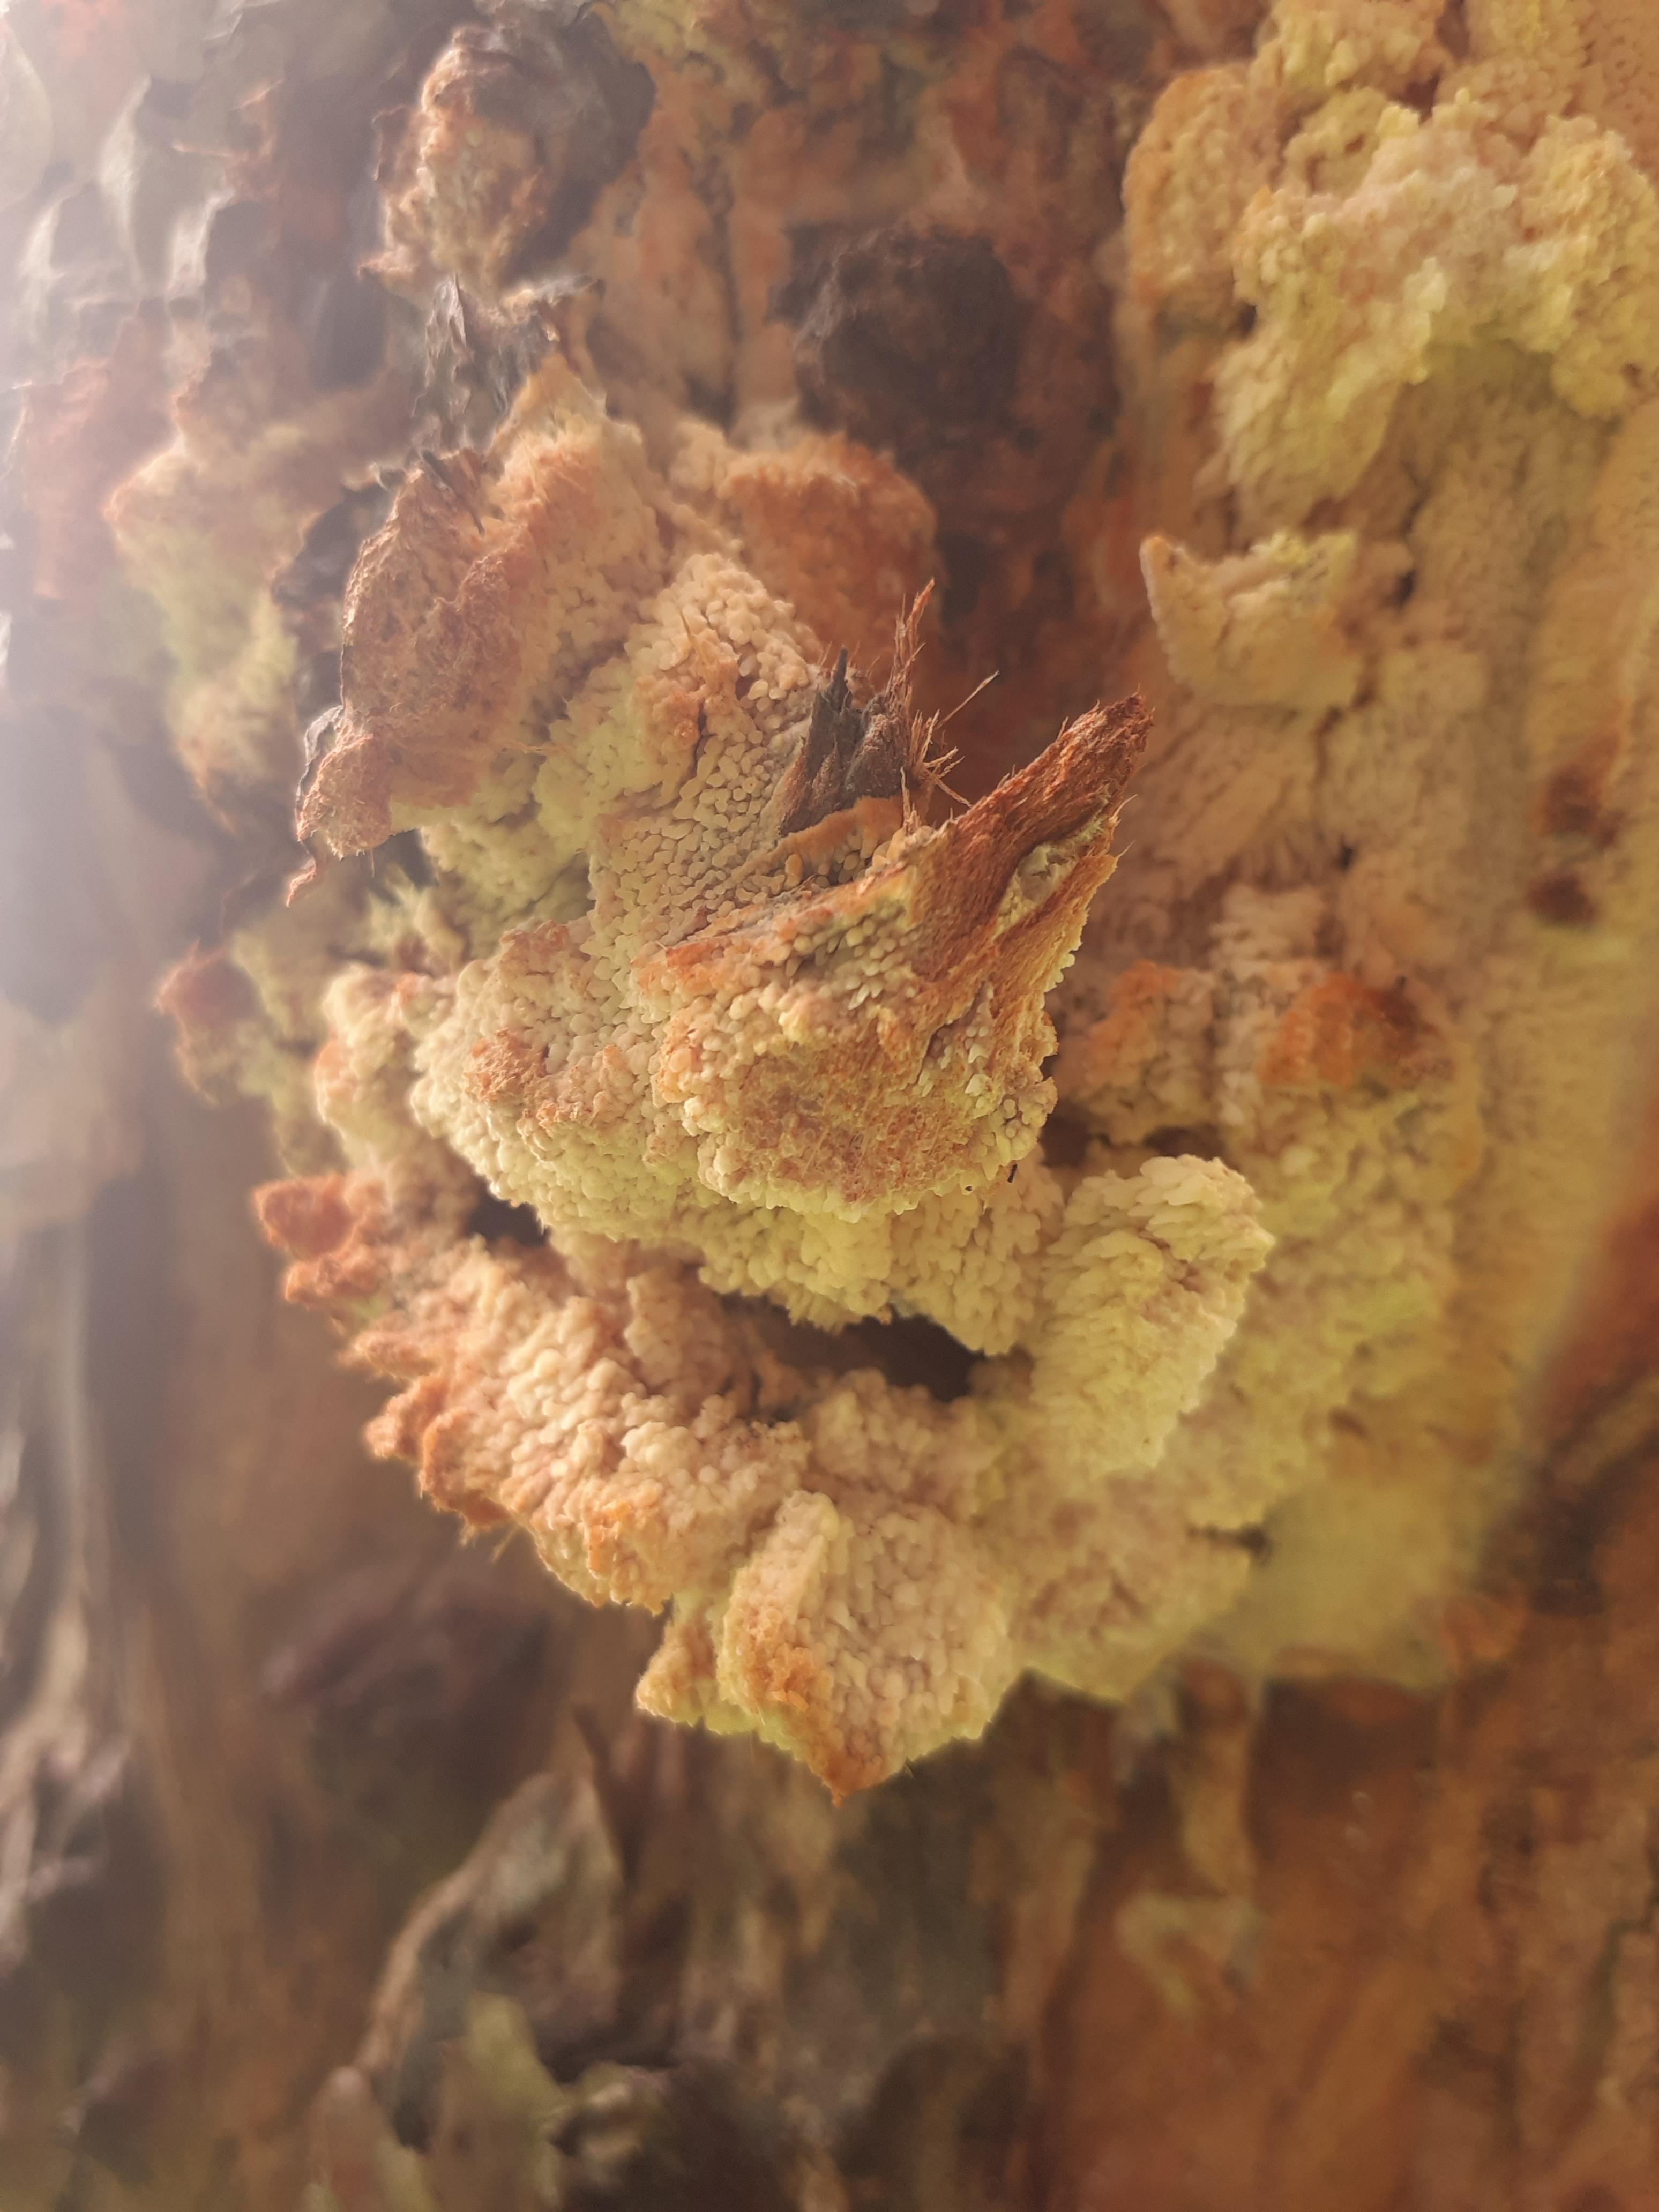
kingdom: Fungi
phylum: Basidiomycota
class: Agaricomycetes
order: Polyporales
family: Meruliaceae
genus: Sarcodontia
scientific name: Sarcodontia setosa
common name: æblepig
